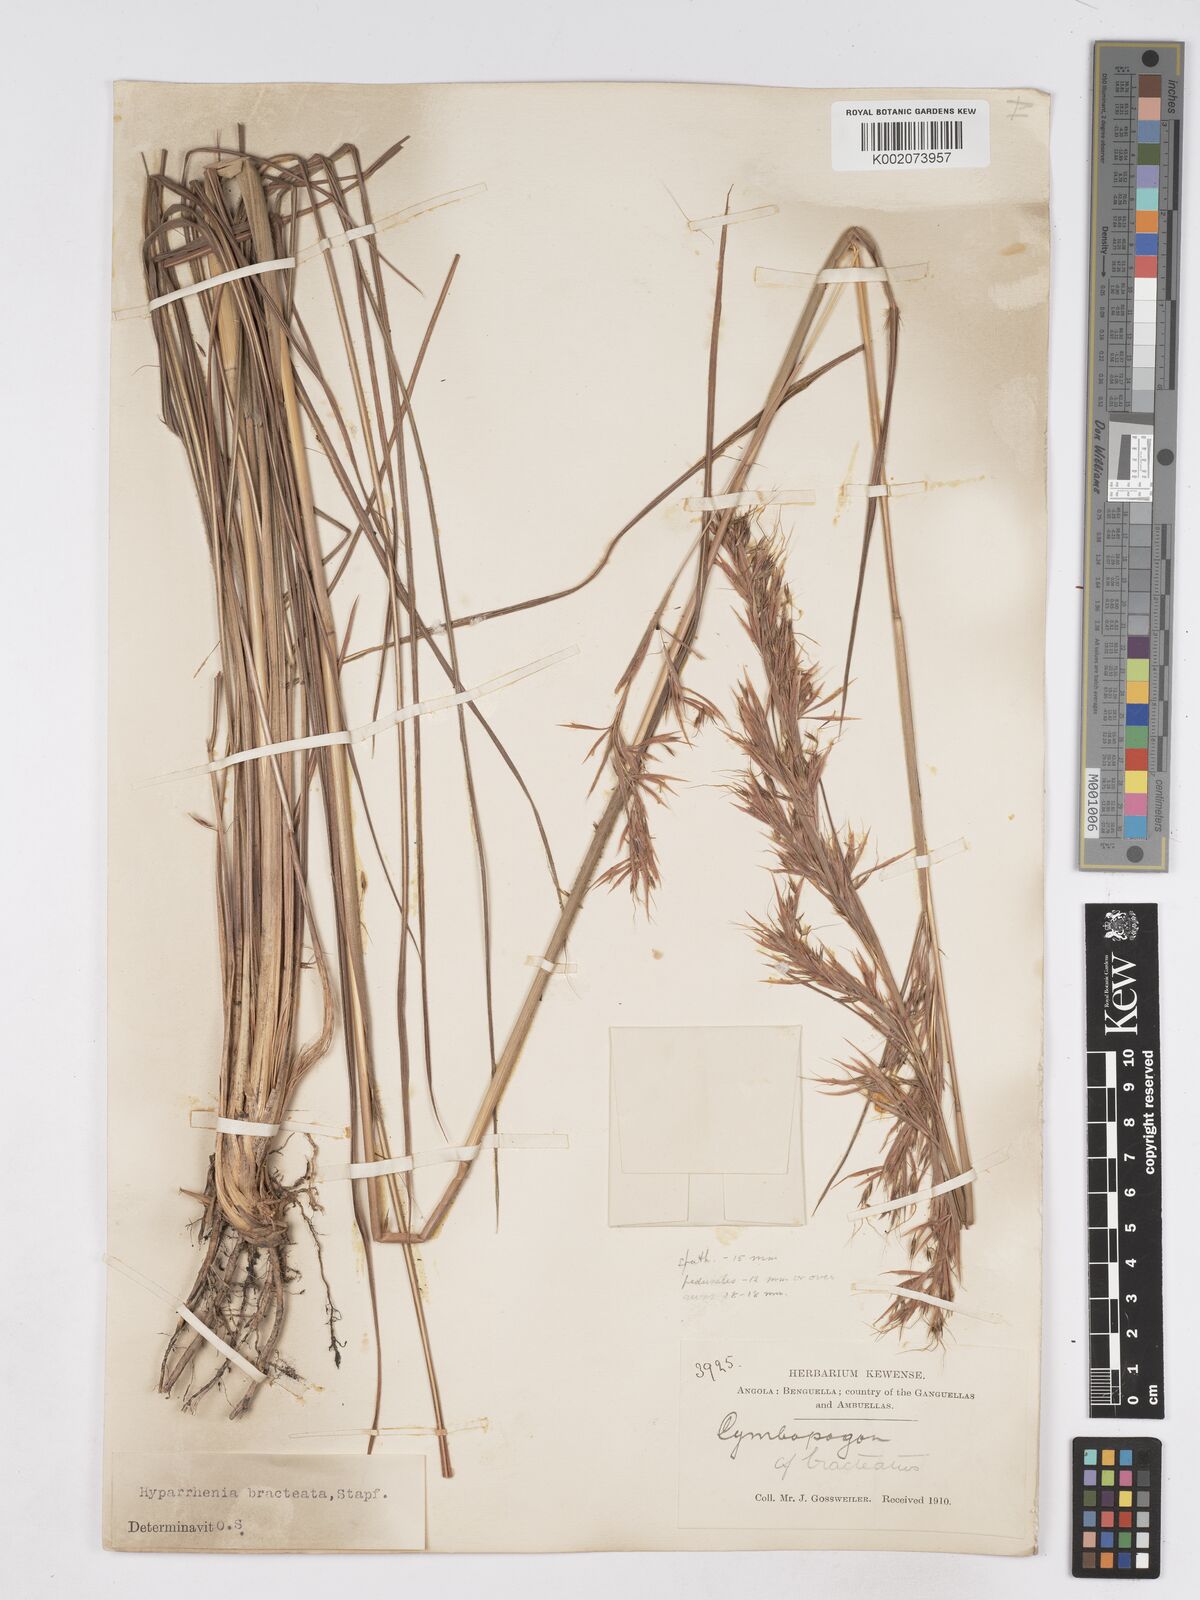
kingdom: Plantae
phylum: Tracheophyta
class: Liliopsida
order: Poales
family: Poaceae
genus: Hyparrhenia
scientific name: Hyparrhenia bracteata
